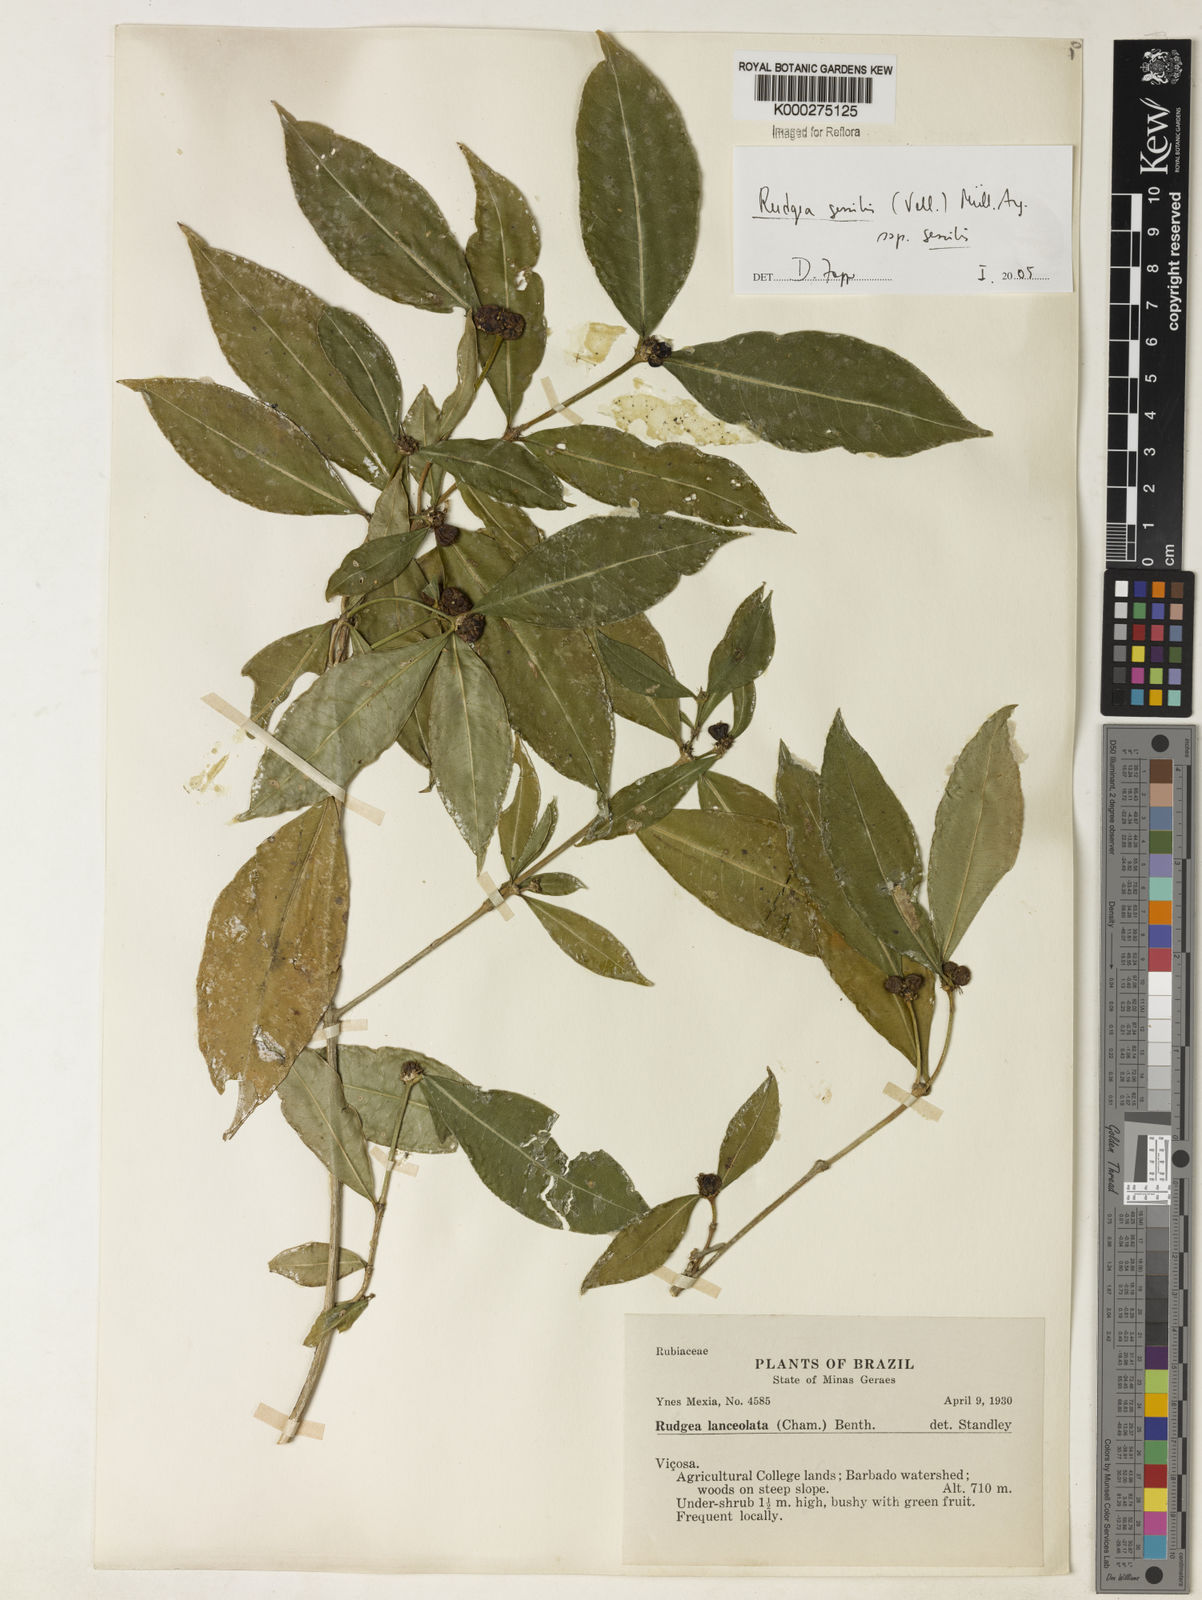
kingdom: Plantae
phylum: Tracheophyta
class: Magnoliopsida
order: Gentianales
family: Rubiaceae
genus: Rudgea
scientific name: Rudgea sessilis
